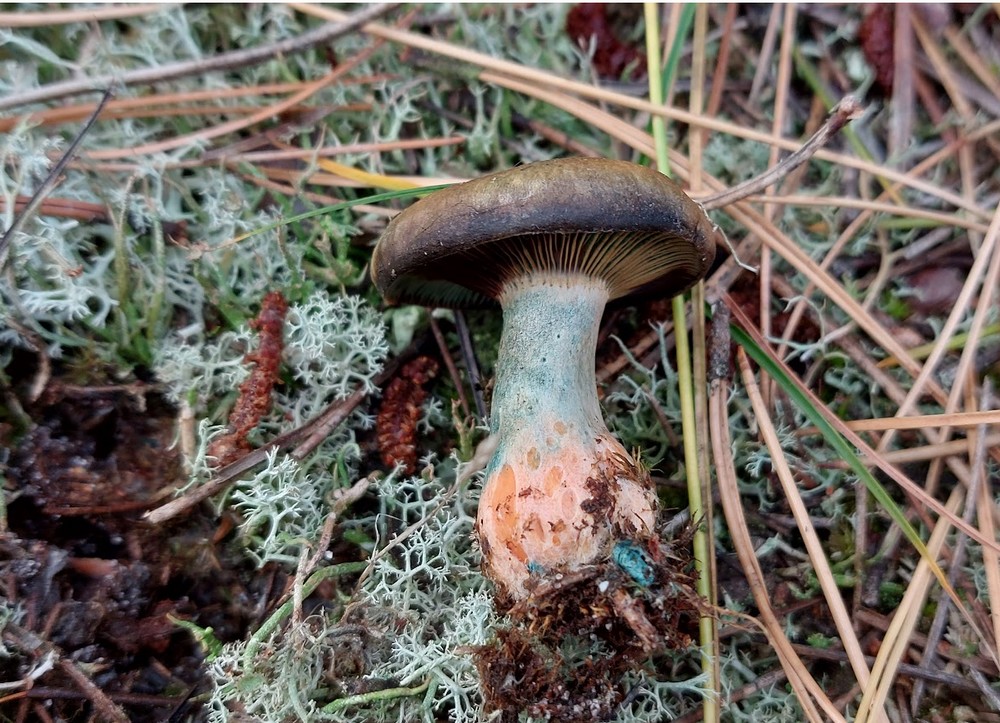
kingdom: Fungi
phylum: Basidiomycota
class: Agaricomycetes
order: Russulales
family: Russulaceae
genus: Lactarius
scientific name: Lactarius
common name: mælkehat
